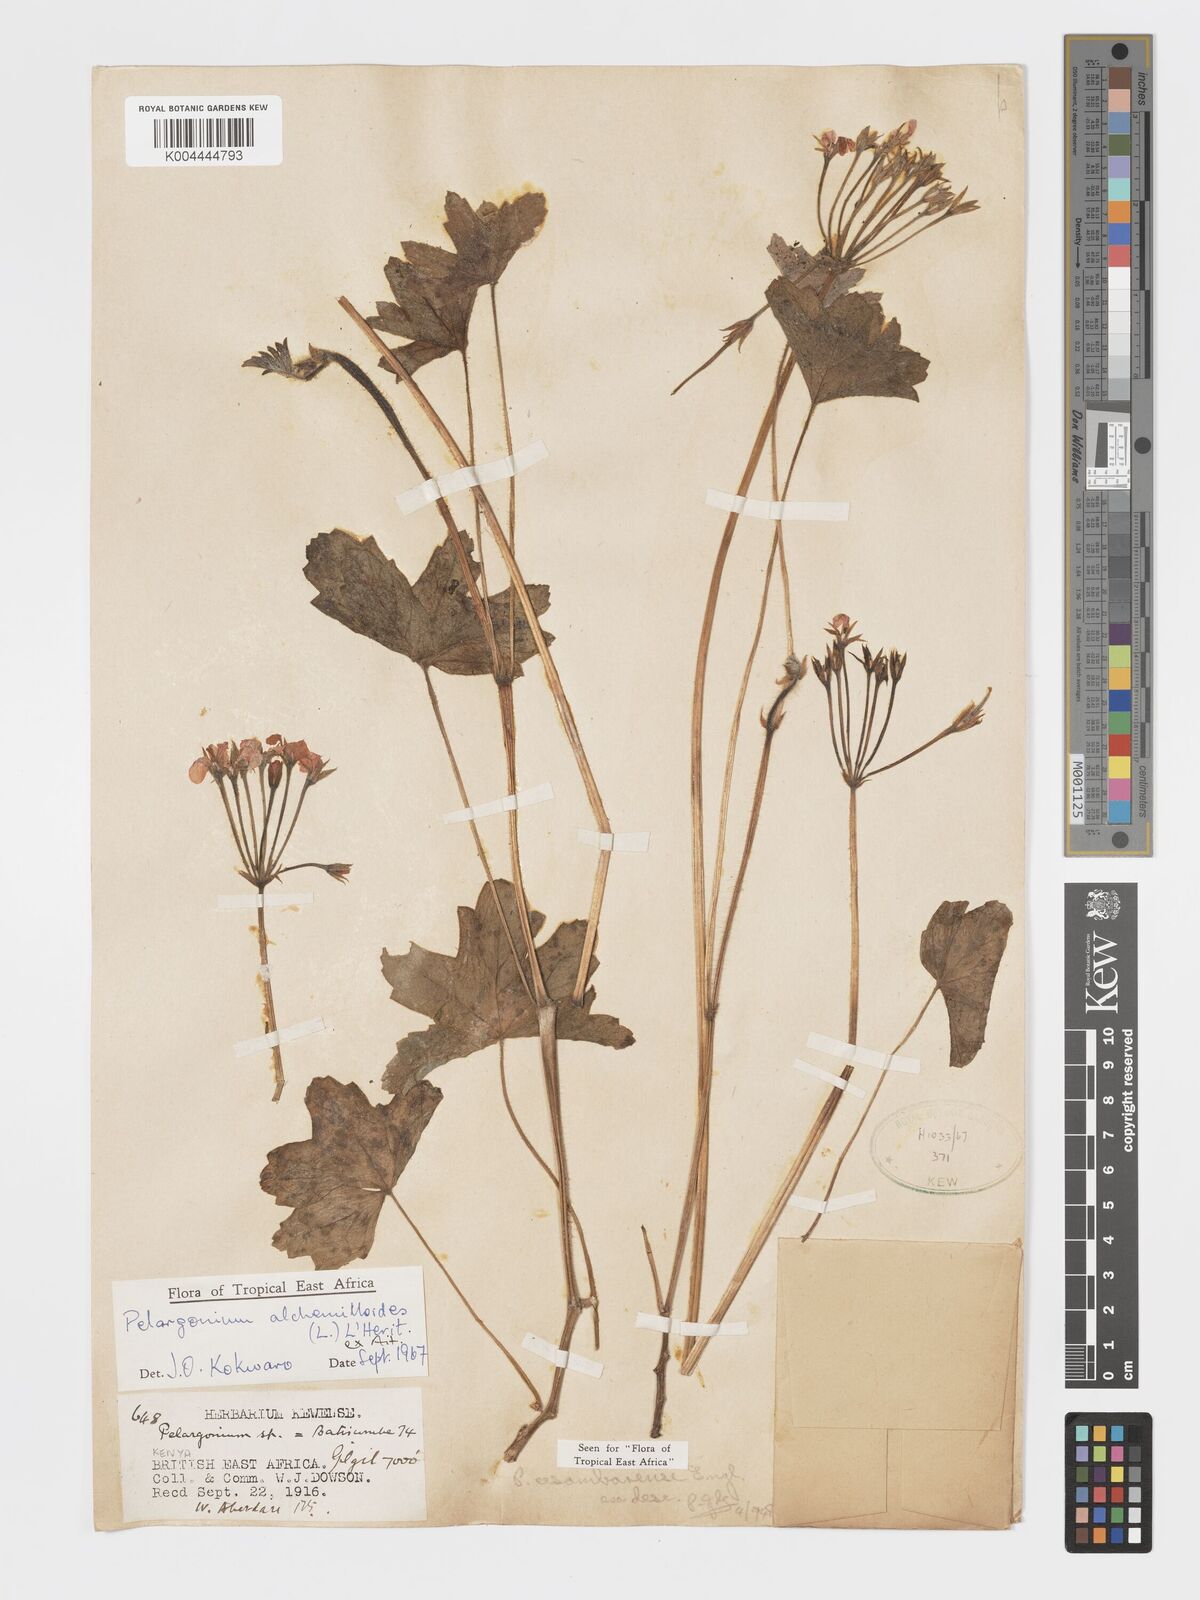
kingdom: Plantae
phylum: Tracheophyta
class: Magnoliopsida
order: Geraniales
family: Geraniaceae
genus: Pelargonium
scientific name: Pelargonium alchemilloides
